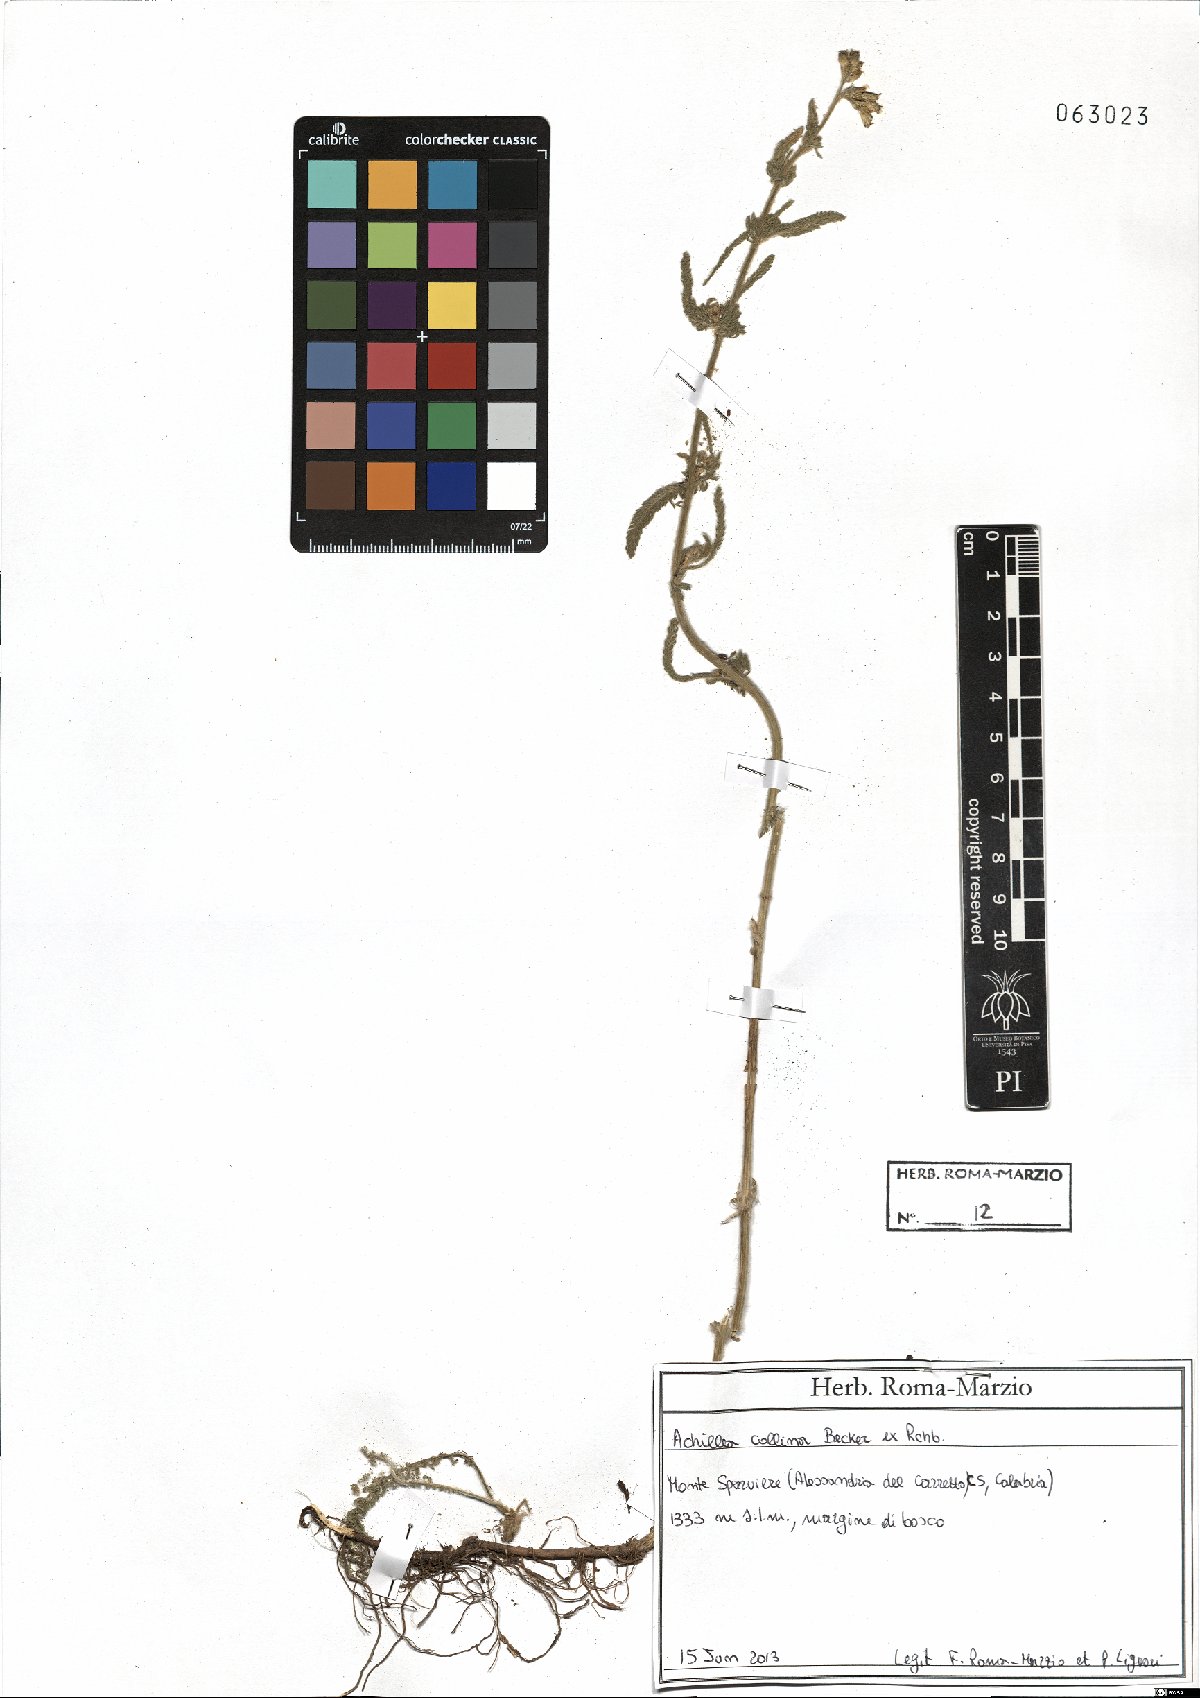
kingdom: Plantae
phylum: Tracheophyta
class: Magnoliopsida
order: Asterales
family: Asteraceae
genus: Achillea
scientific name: Achillea collina
